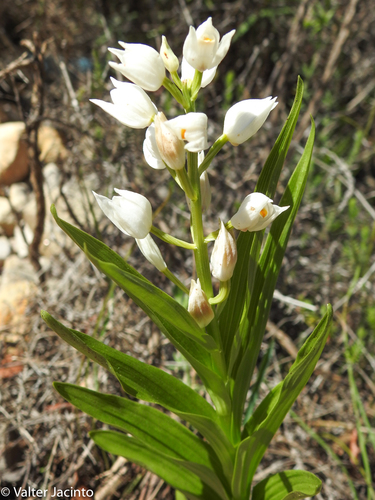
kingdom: Plantae
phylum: Tracheophyta
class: Liliopsida
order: Asparagales
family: Orchidaceae
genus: Cephalanthera
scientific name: Cephalanthera longifolia
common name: Narrow-leaved helleborine
